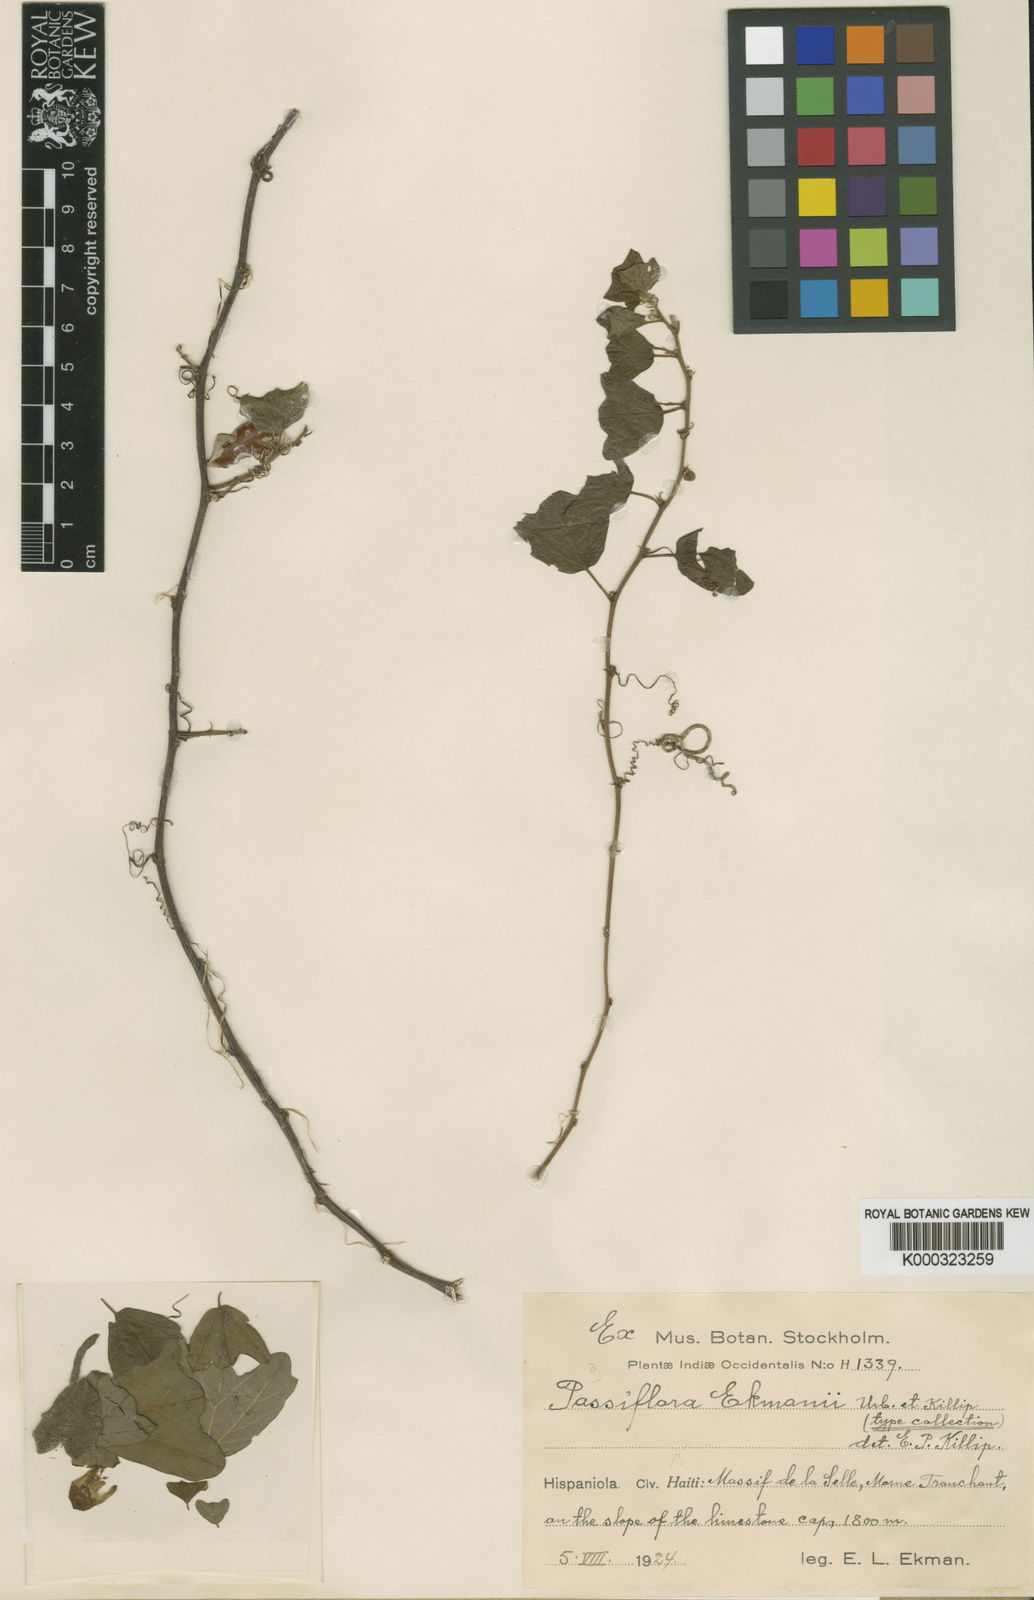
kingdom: Plantae
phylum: Tracheophyta
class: Magnoliopsida
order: Malpighiales
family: Passifloraceae
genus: Passiflora
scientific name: Passiflora ekmanii
